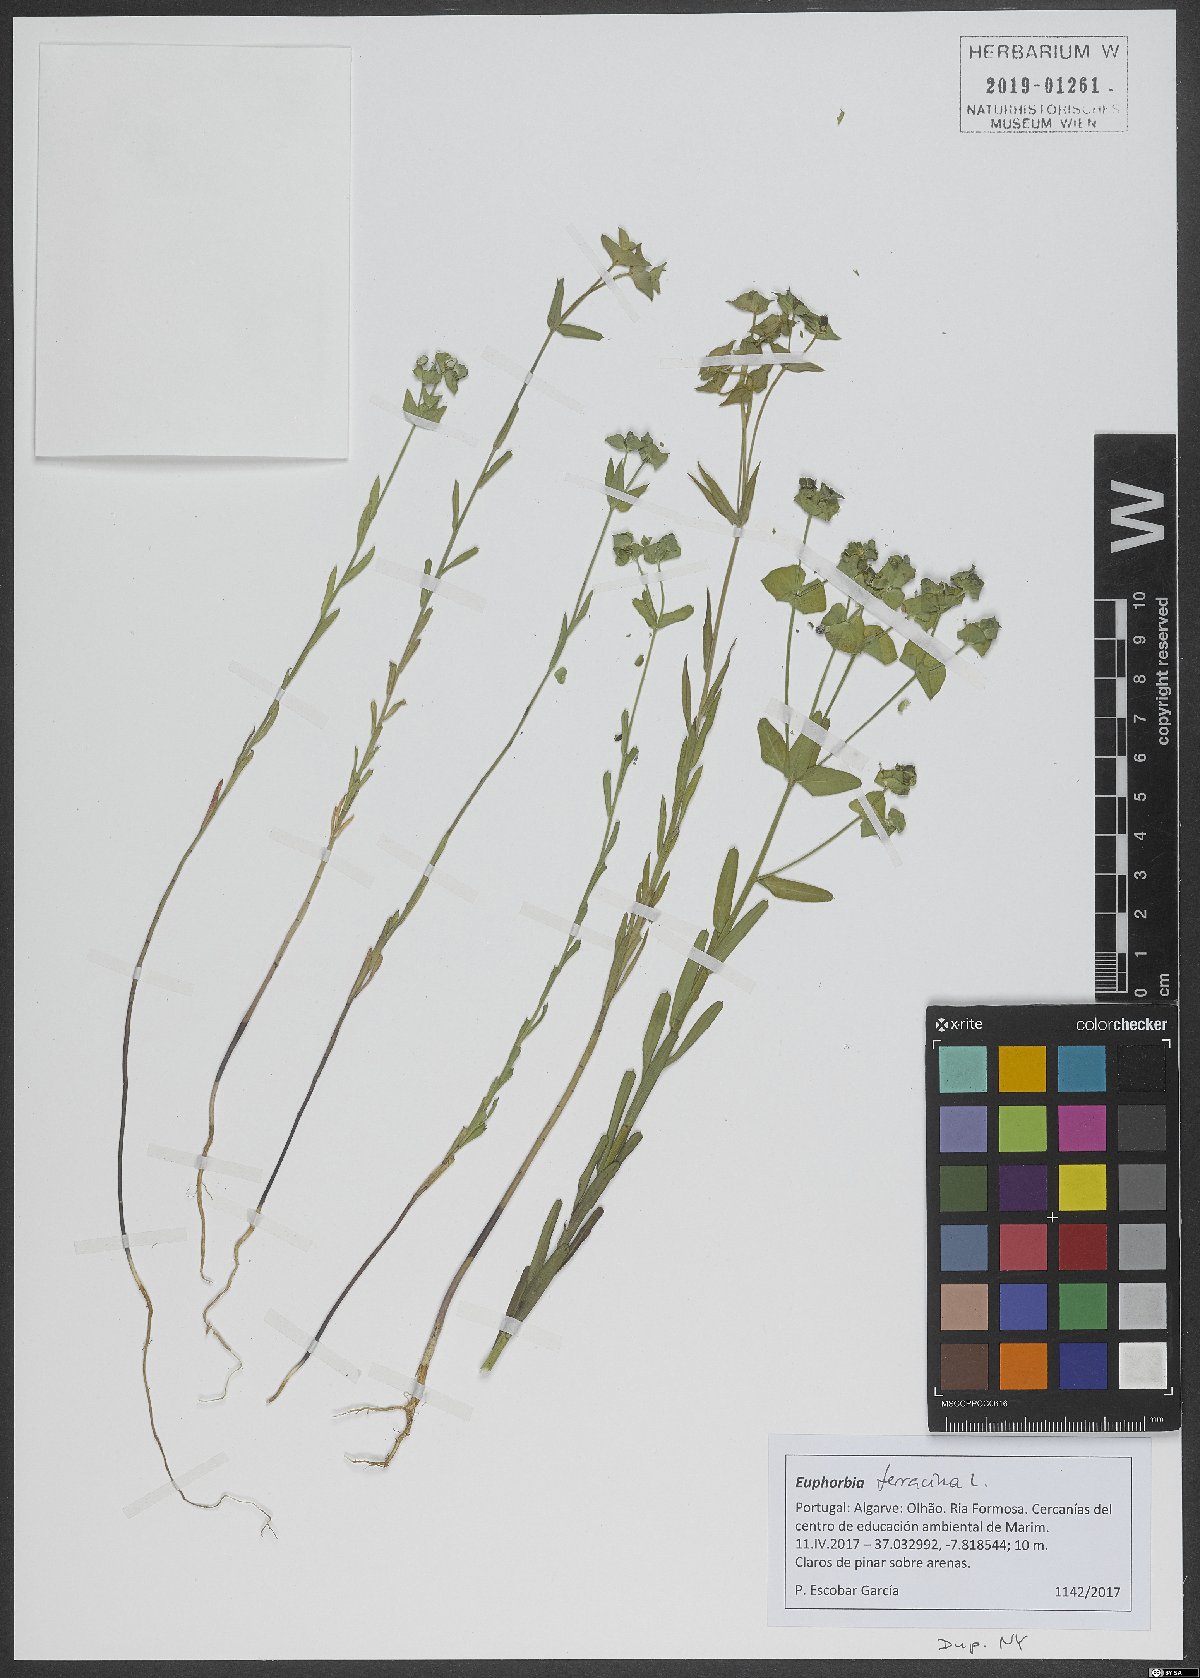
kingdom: Plantae
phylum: Tracheophyta
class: Magnoliopsida
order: Malpighiales
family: Euphorbiaceae
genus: Euphorbia
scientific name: Euphorbia terracina
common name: Geraldton carnation weed
